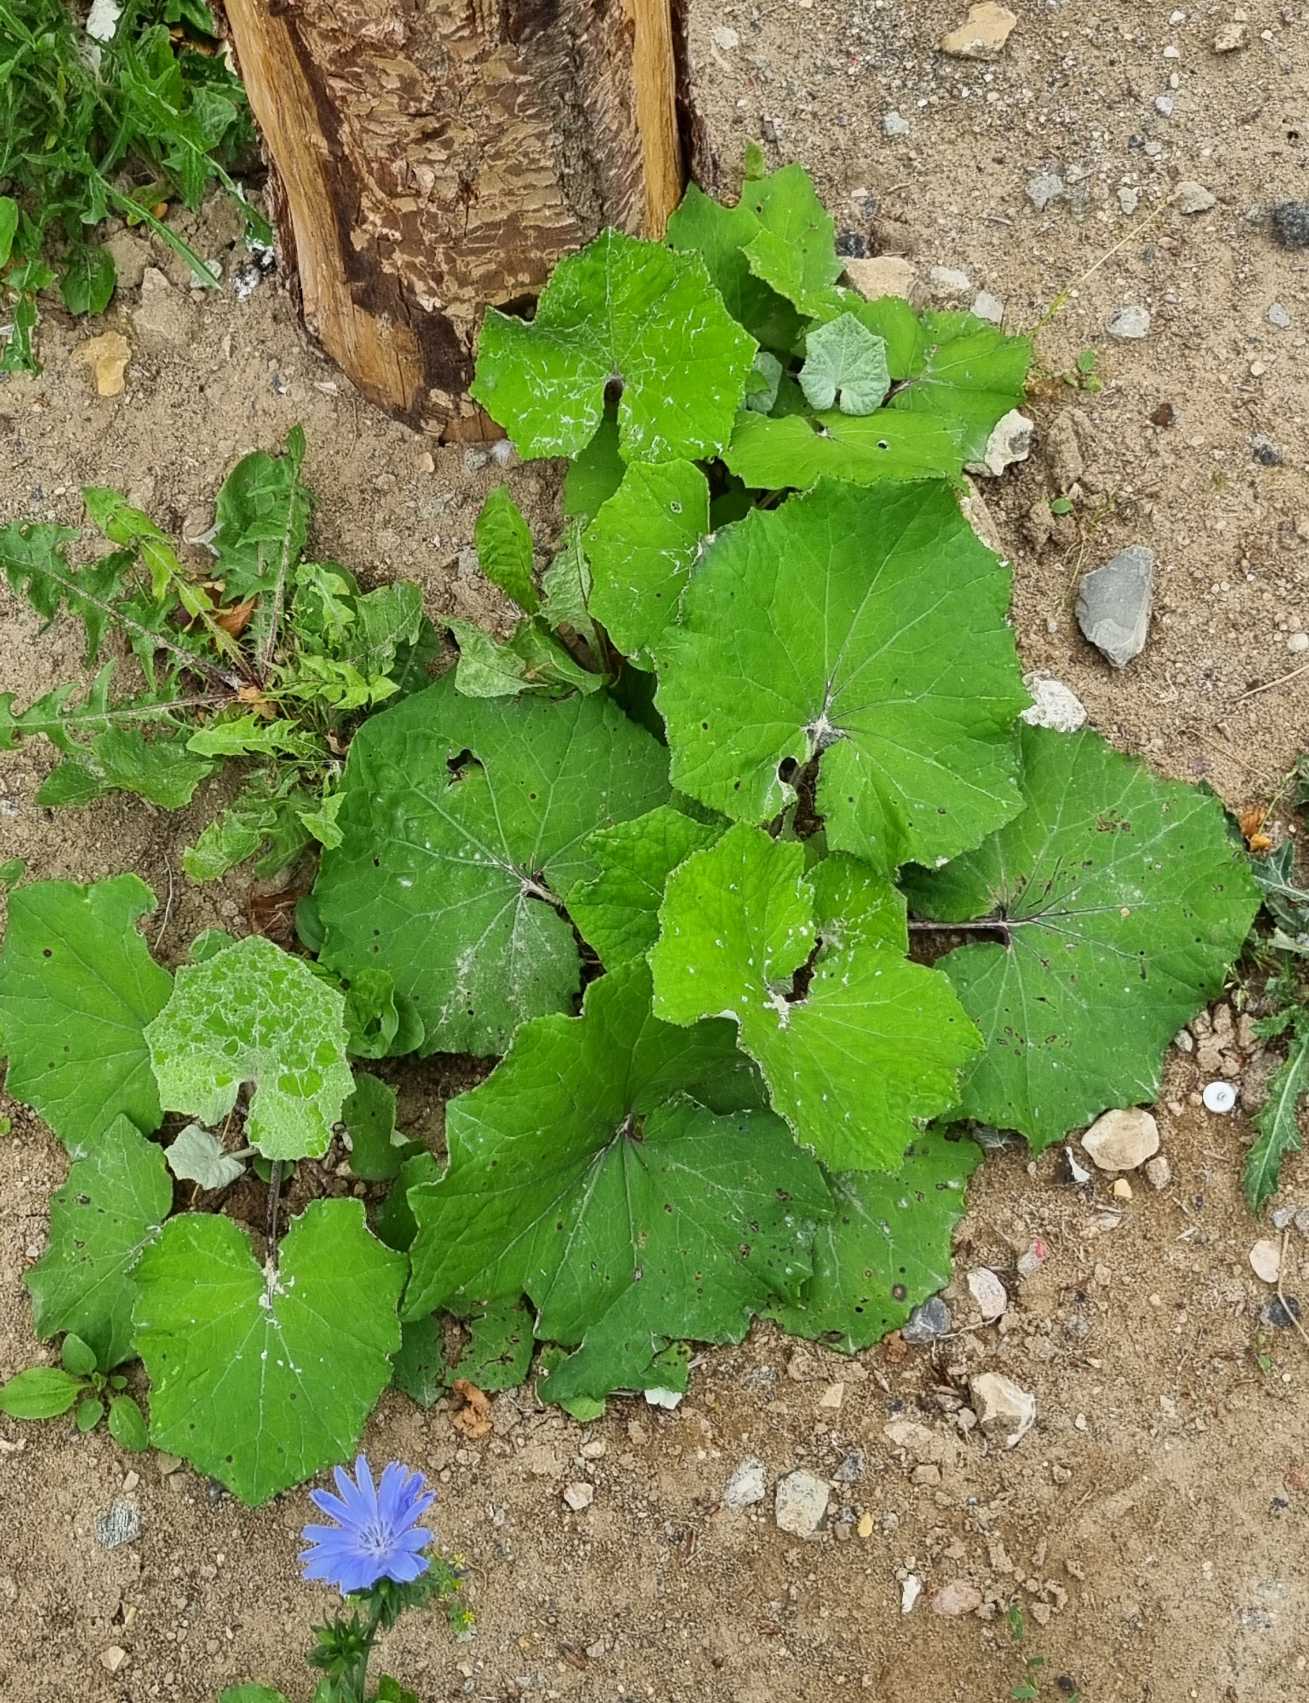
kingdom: Plantae
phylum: Tracheophyta
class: Magnoliopsida
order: Asterales
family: Asteraceae
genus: Tussilago
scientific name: Tussilago farfara
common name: Følfod
